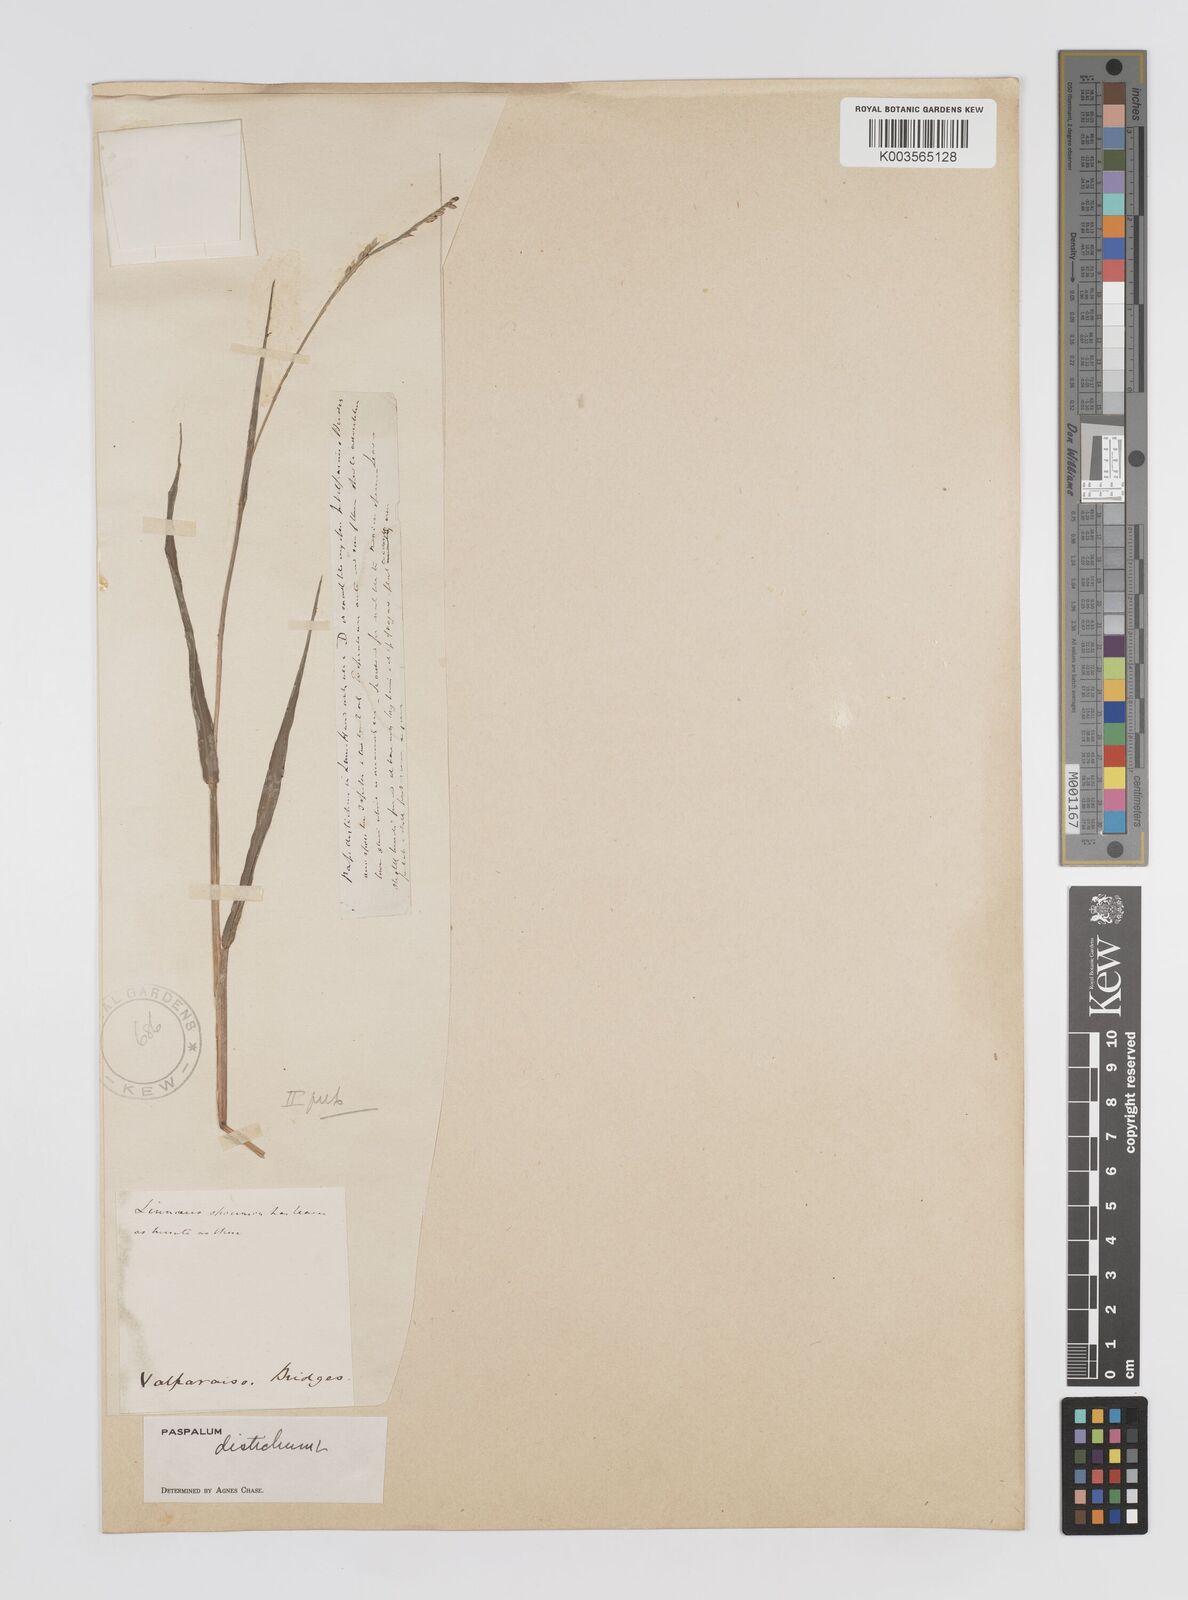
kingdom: Plantae
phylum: Tracheophyta
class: Liliopsida
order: Poales
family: Poaceae
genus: Paspalum
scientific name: Paspalum distichum
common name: Knotgrass
